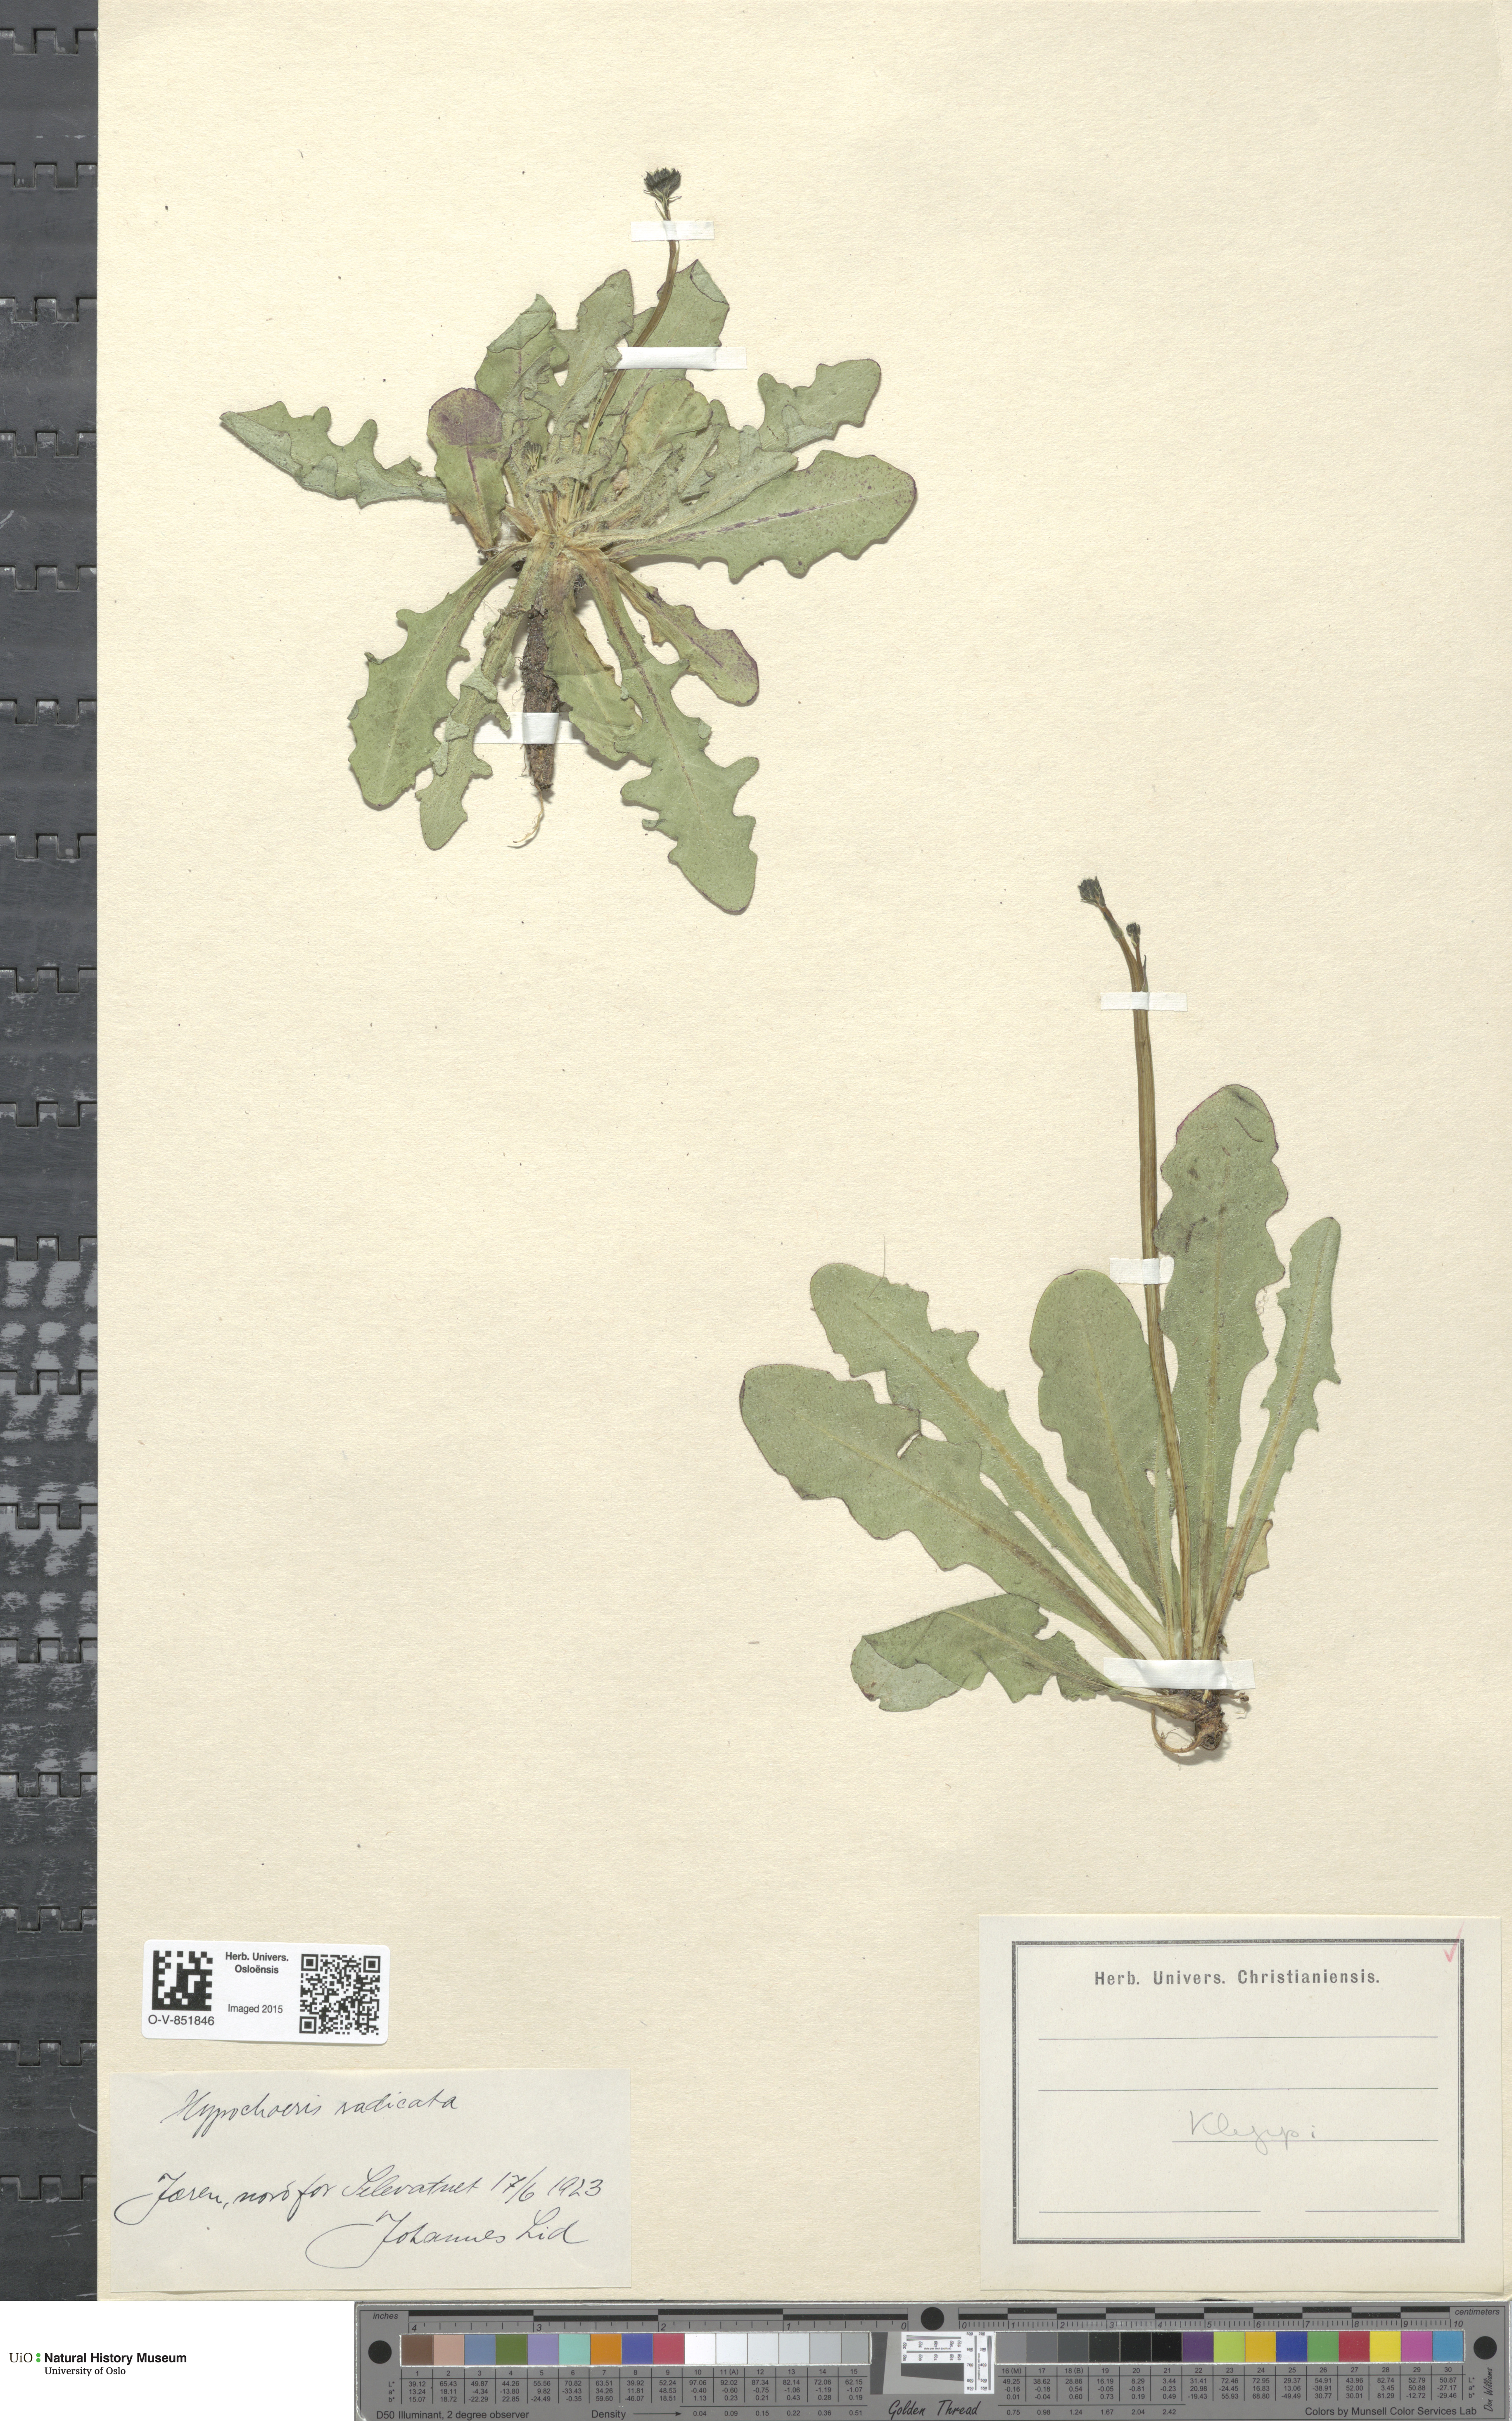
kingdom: Plantae
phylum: Tracheophyta
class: Magnoliopsida
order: Asterales
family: Asteraceae
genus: Hypochaeris
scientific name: Hypochaeris radicata
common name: Flatweed
